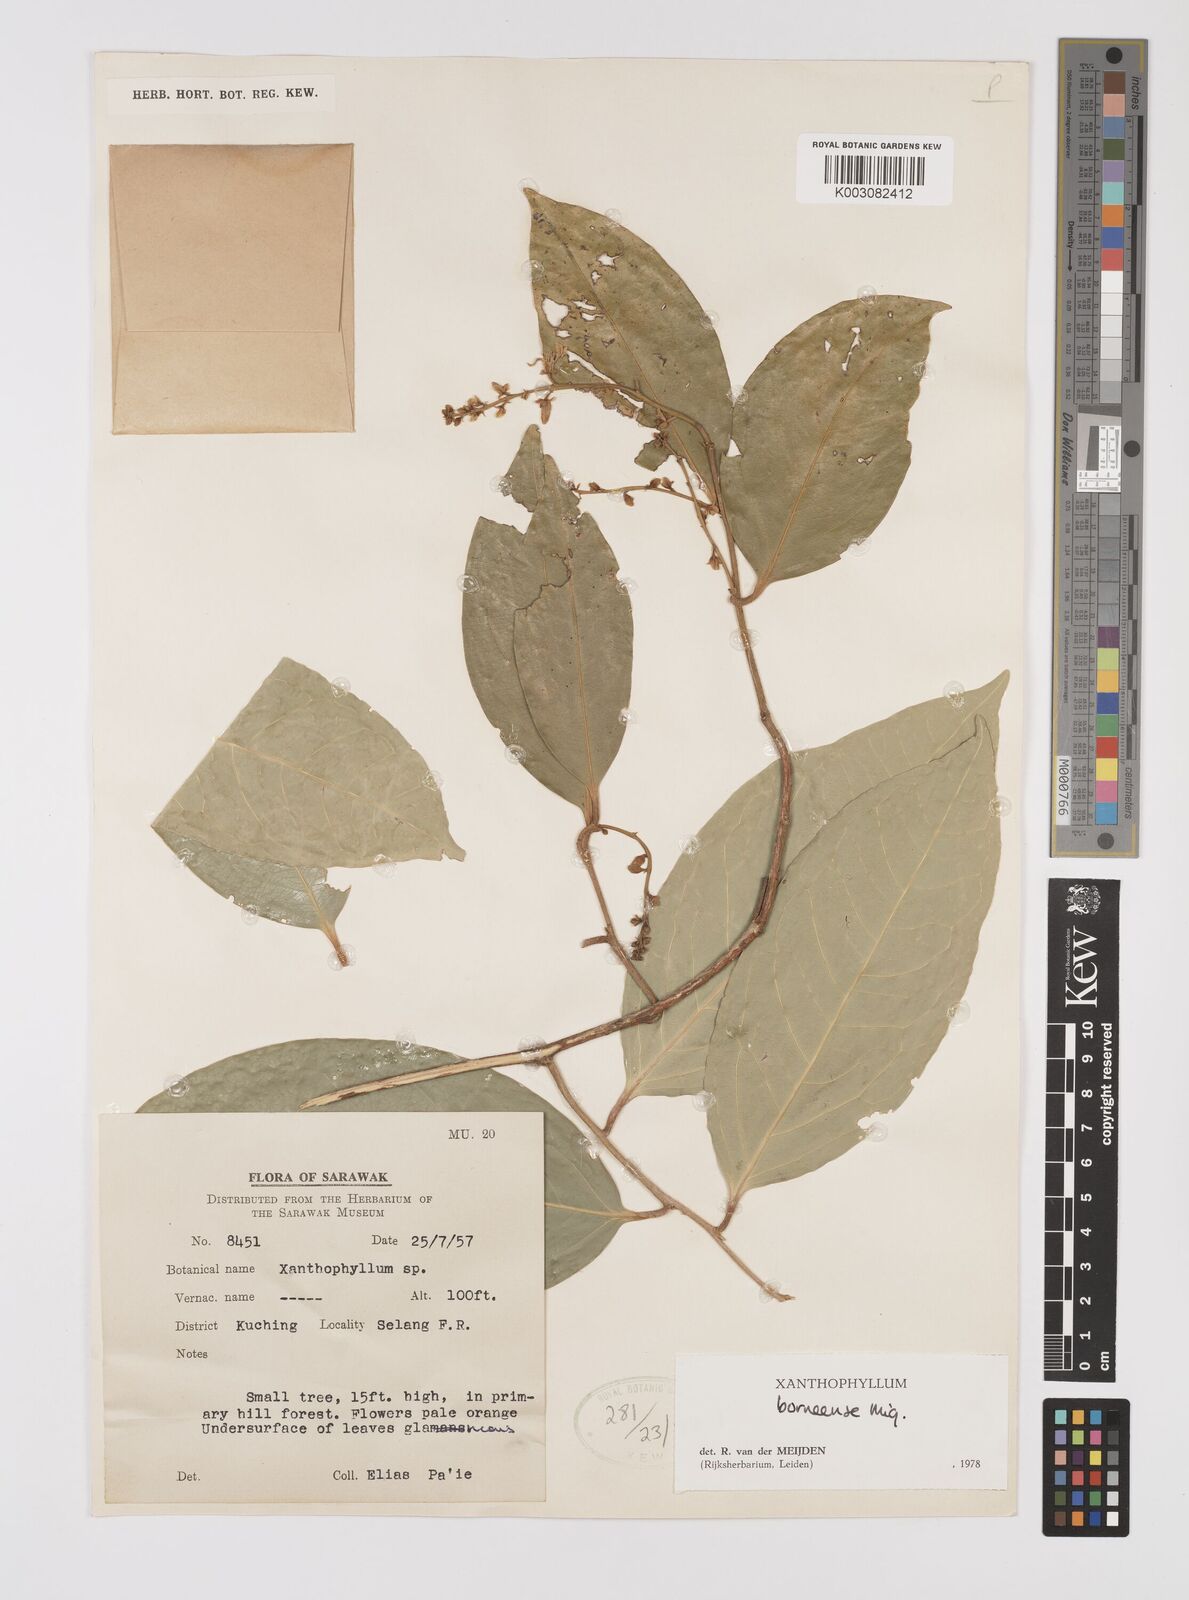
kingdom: Plantae
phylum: Tracheophyta
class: Magnoliopsida
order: Fabales
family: Polygalaceae
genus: Xanthophyllum
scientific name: Xanthophyllum borneense
